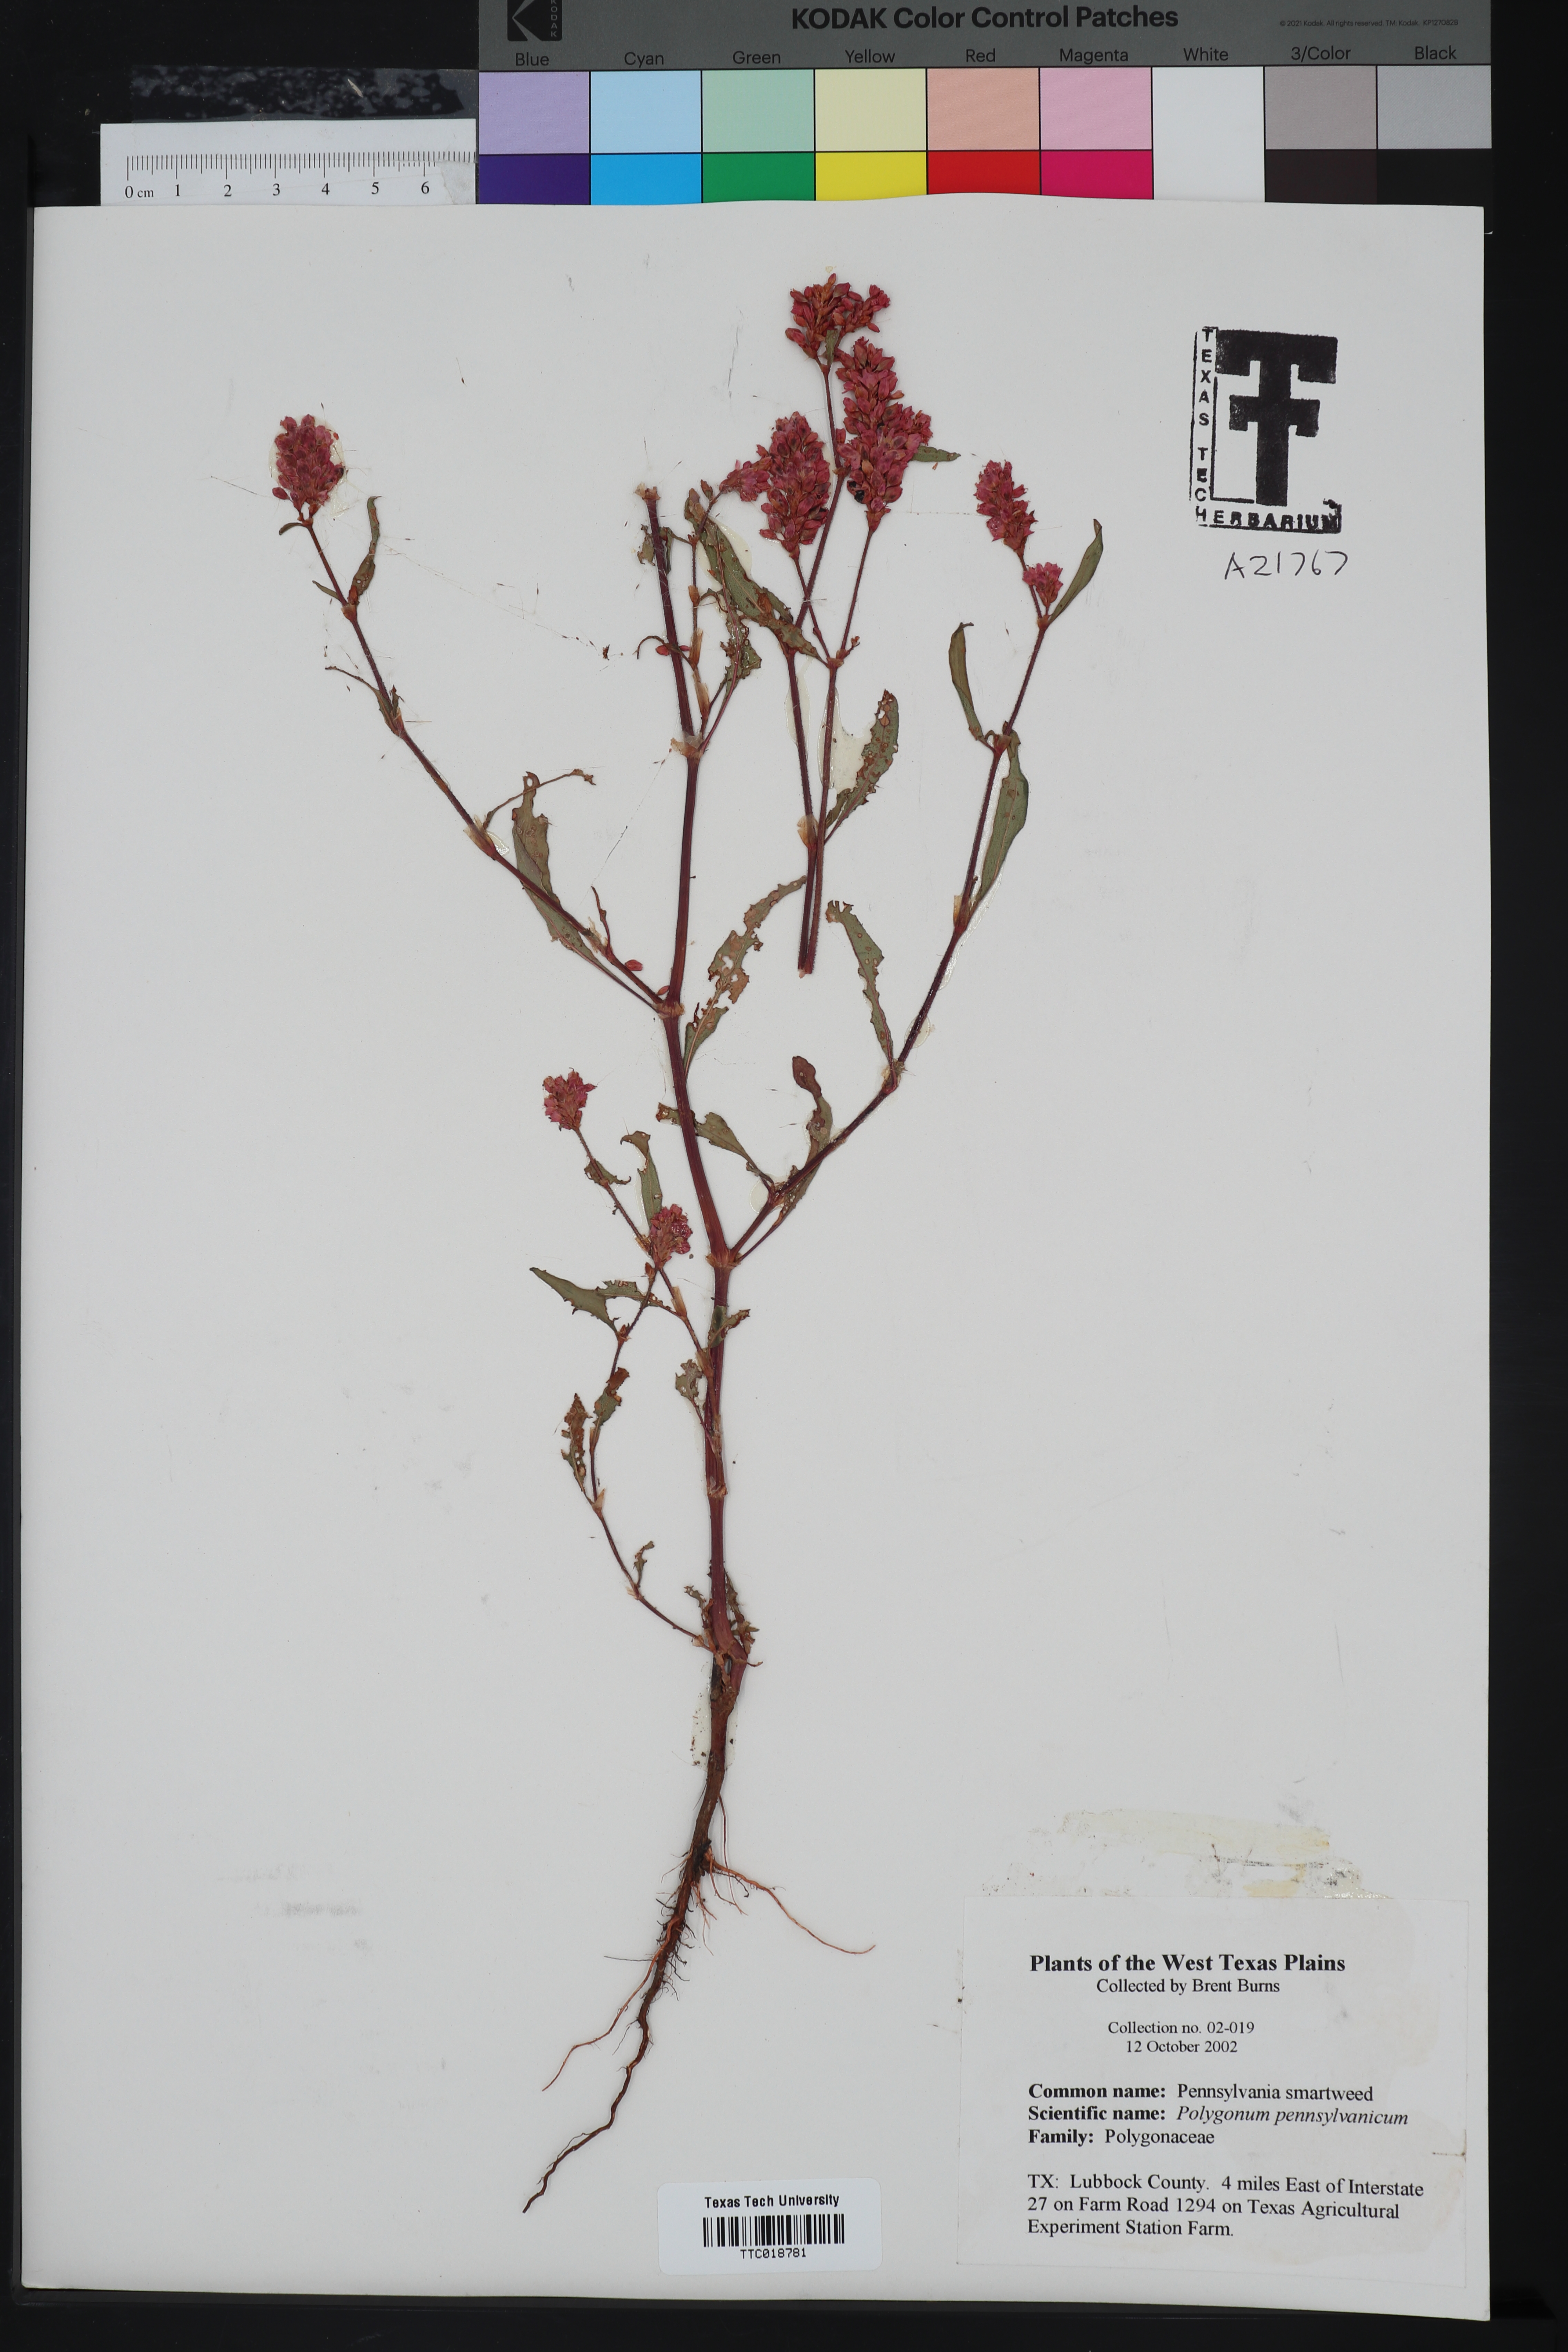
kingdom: Plantae
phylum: Tracheophyta
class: Magnoliopsida
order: Caryophyllales
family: Polygonaceae
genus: Persicaria
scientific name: Persicaria pensylvanica
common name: Pinkweed
